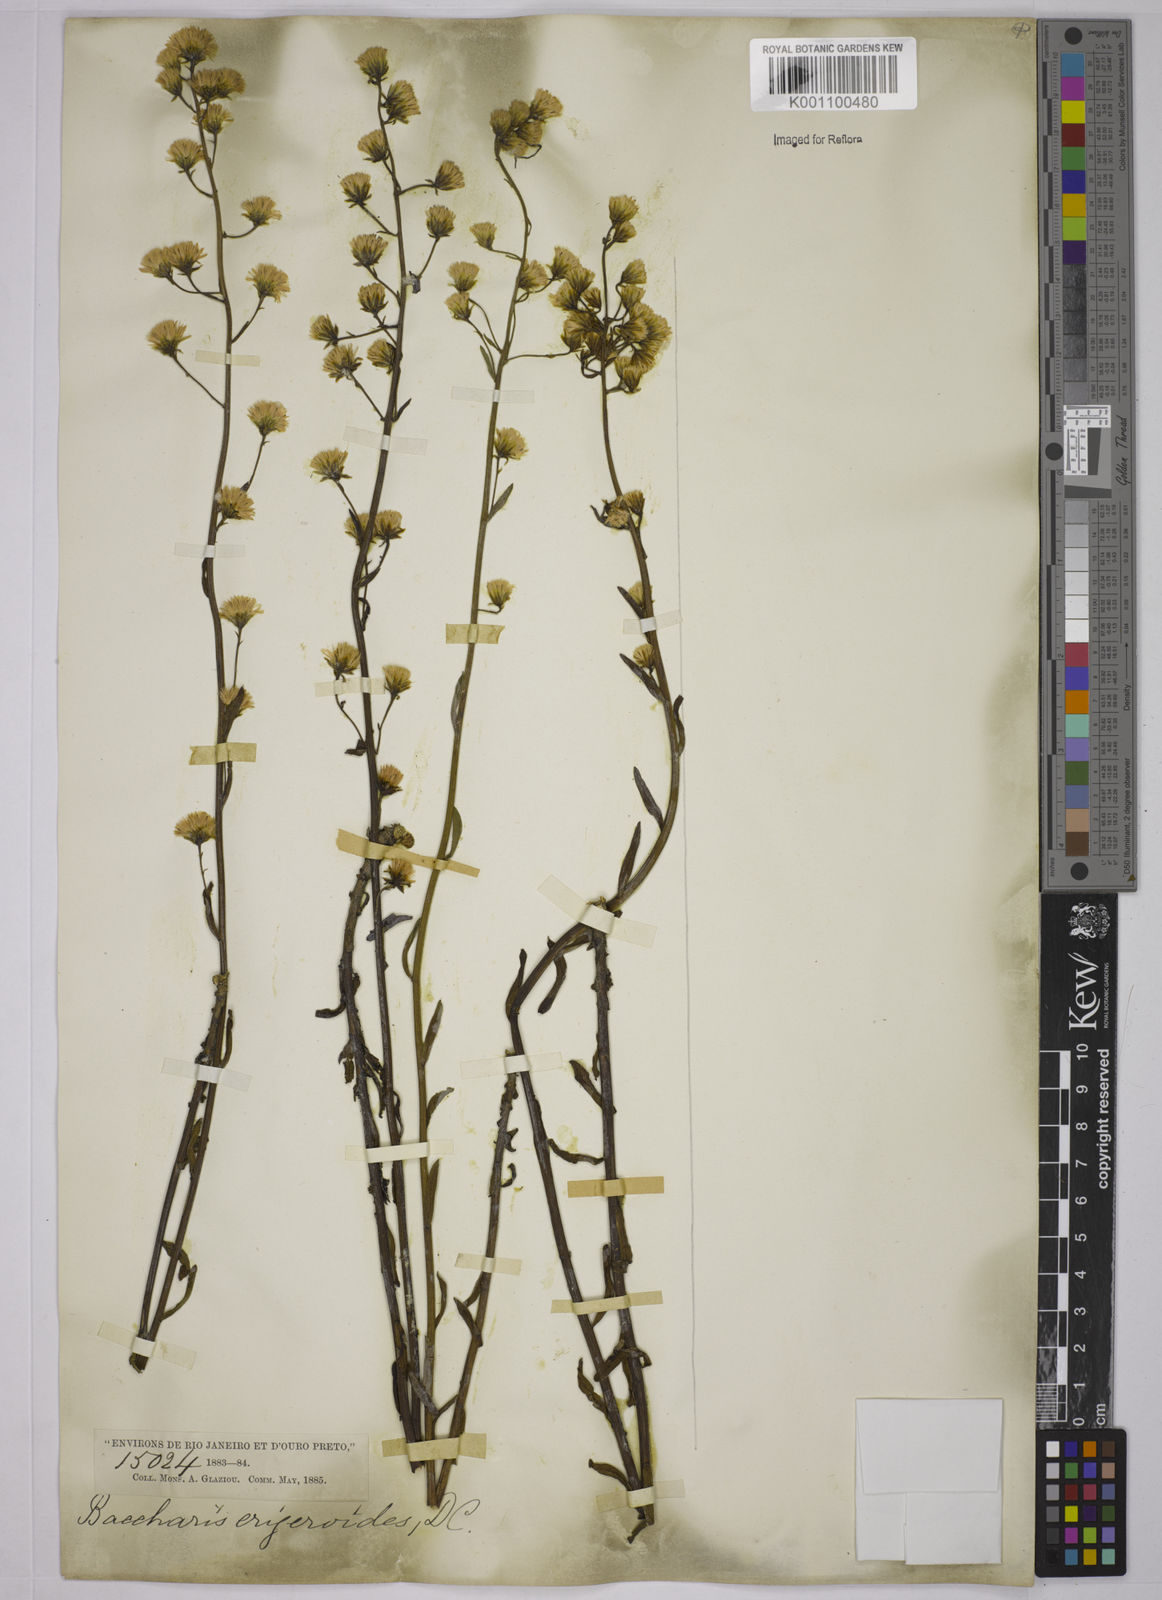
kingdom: Plantae
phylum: Tracheophyta
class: Magnoliopsida
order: Asterales
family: Asteraceae
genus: Baccharis
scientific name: Baccharis erigeroides
